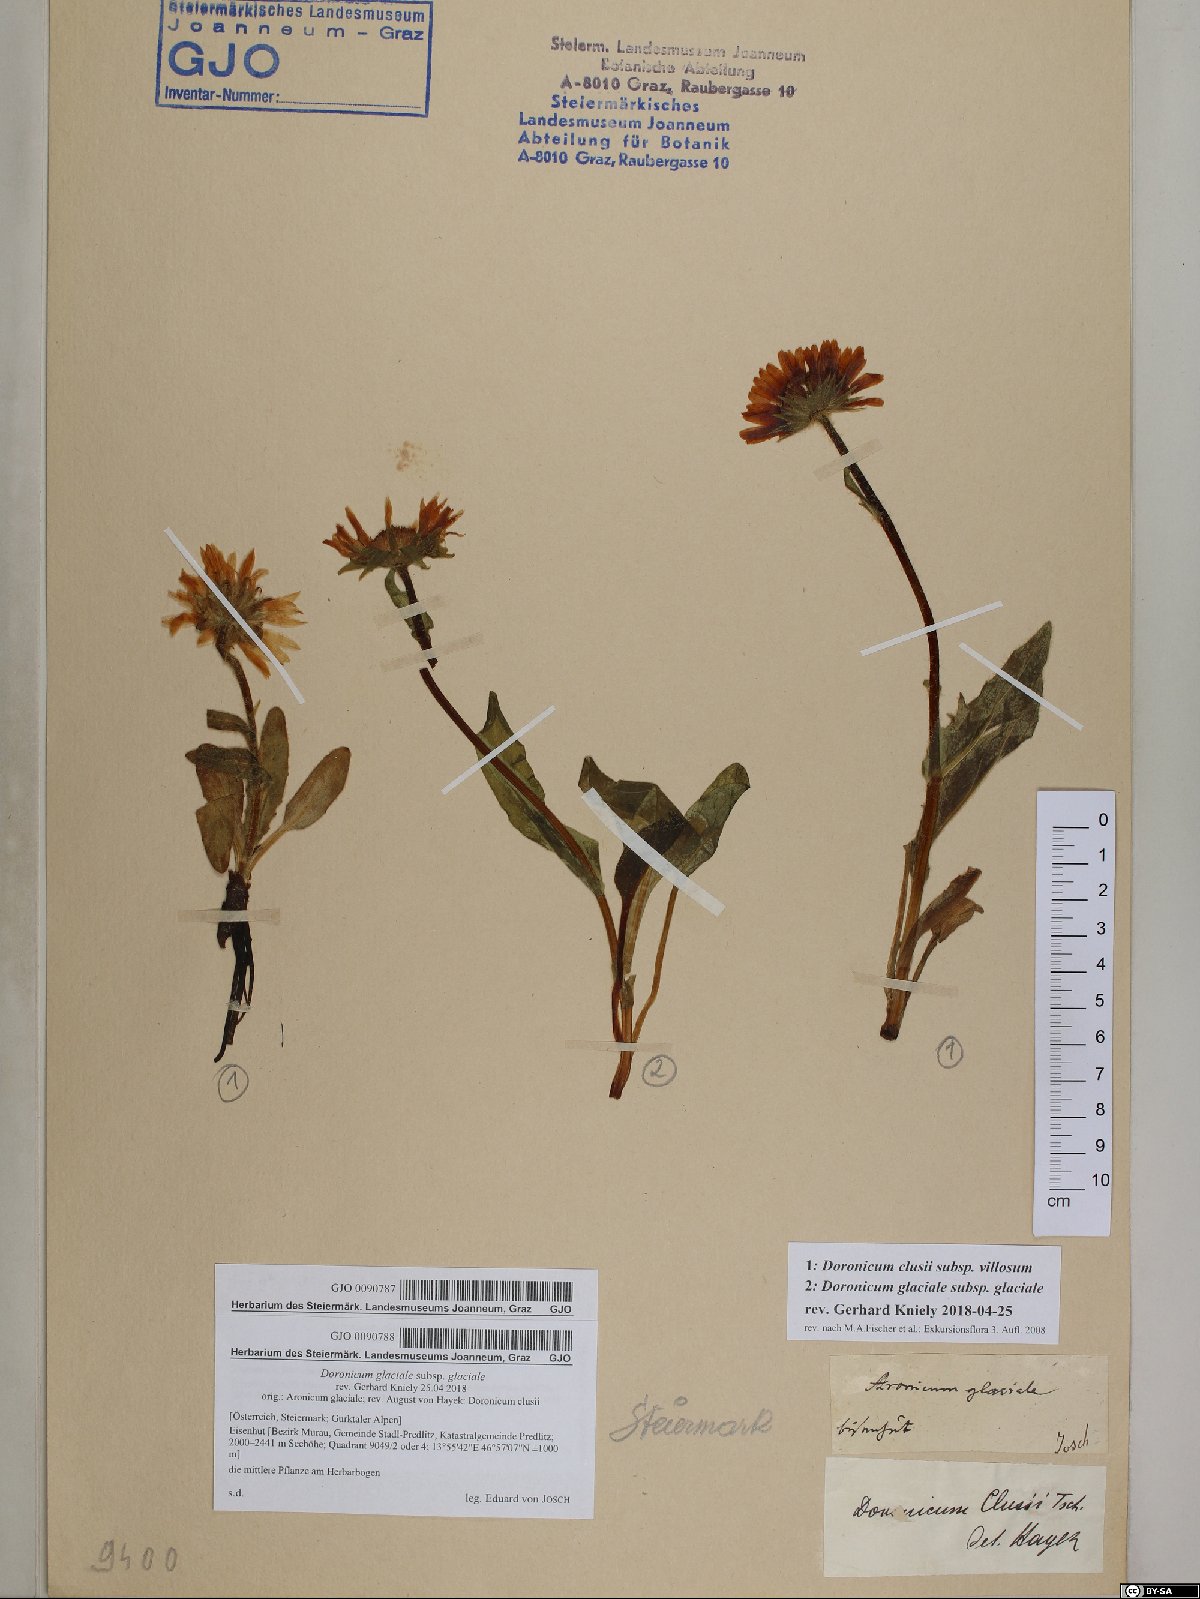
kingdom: Plantae
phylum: Tracheophyta
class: Magnoliopsida
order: Asterales
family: Asteraceae
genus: Doronicum
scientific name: Doronicum clusii
